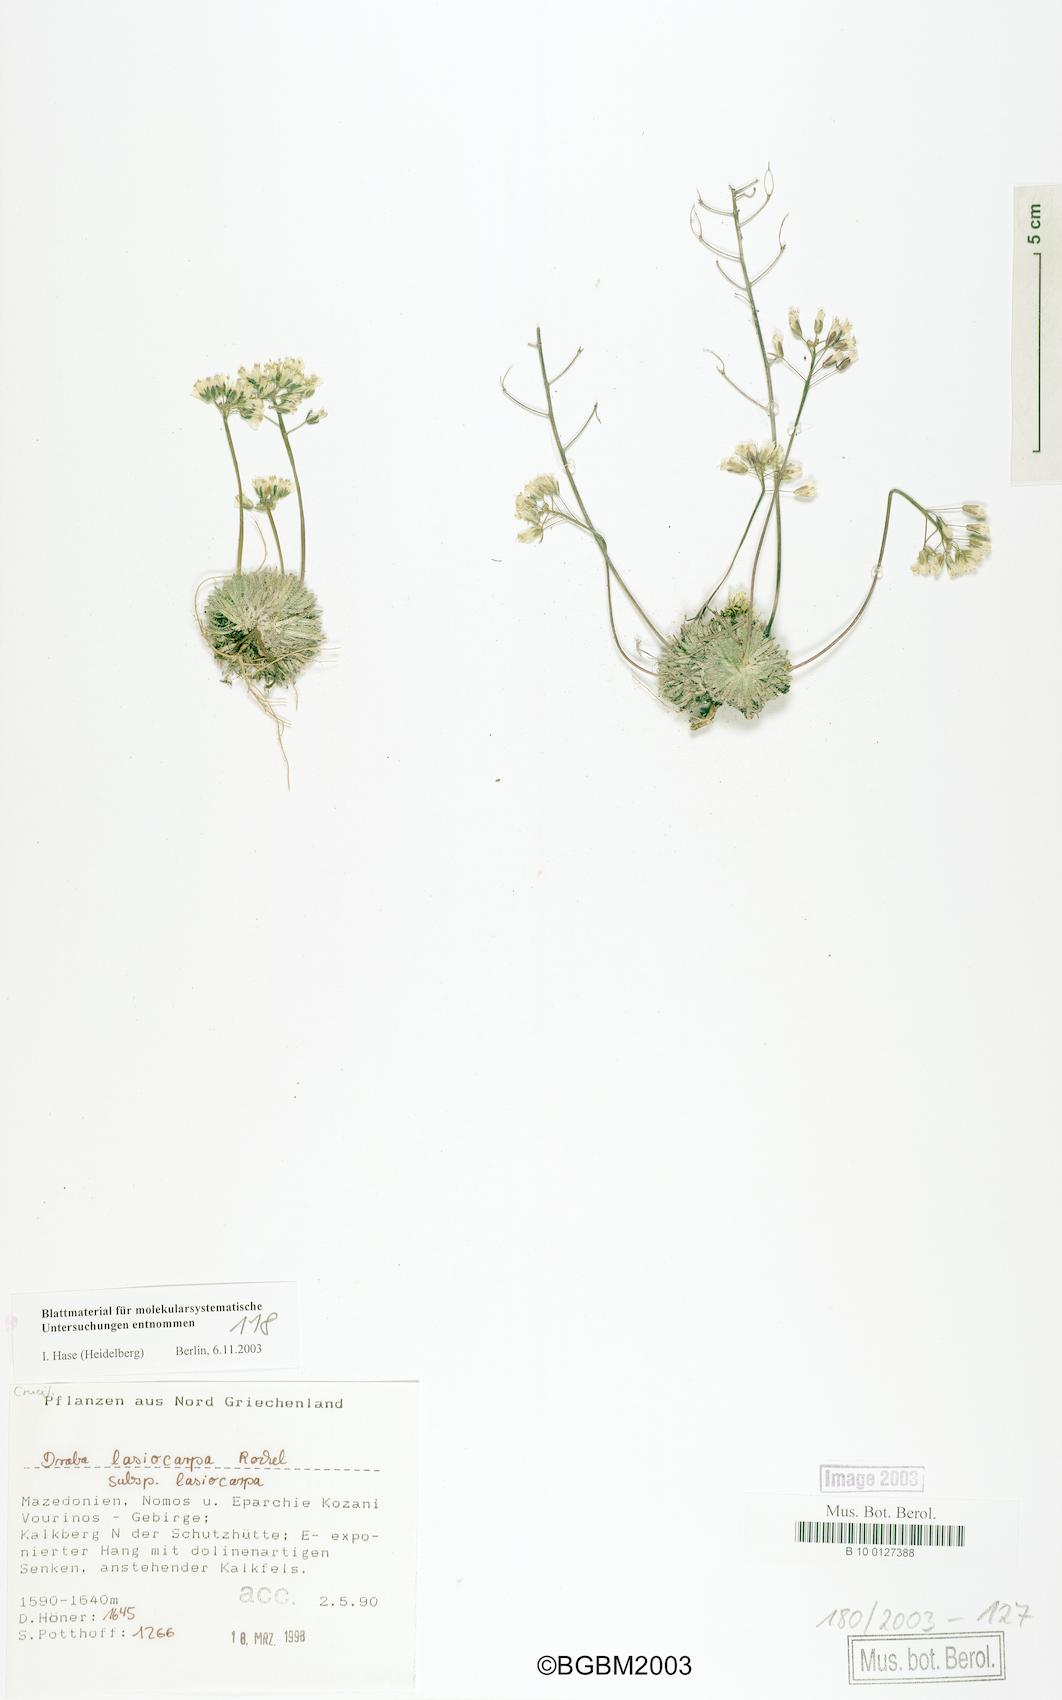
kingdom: Plantae
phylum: Tracheophyta
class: Magnoliopsida
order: Brassicales
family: Brassicaceae
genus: Draba
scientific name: Draba lasiocarpa
